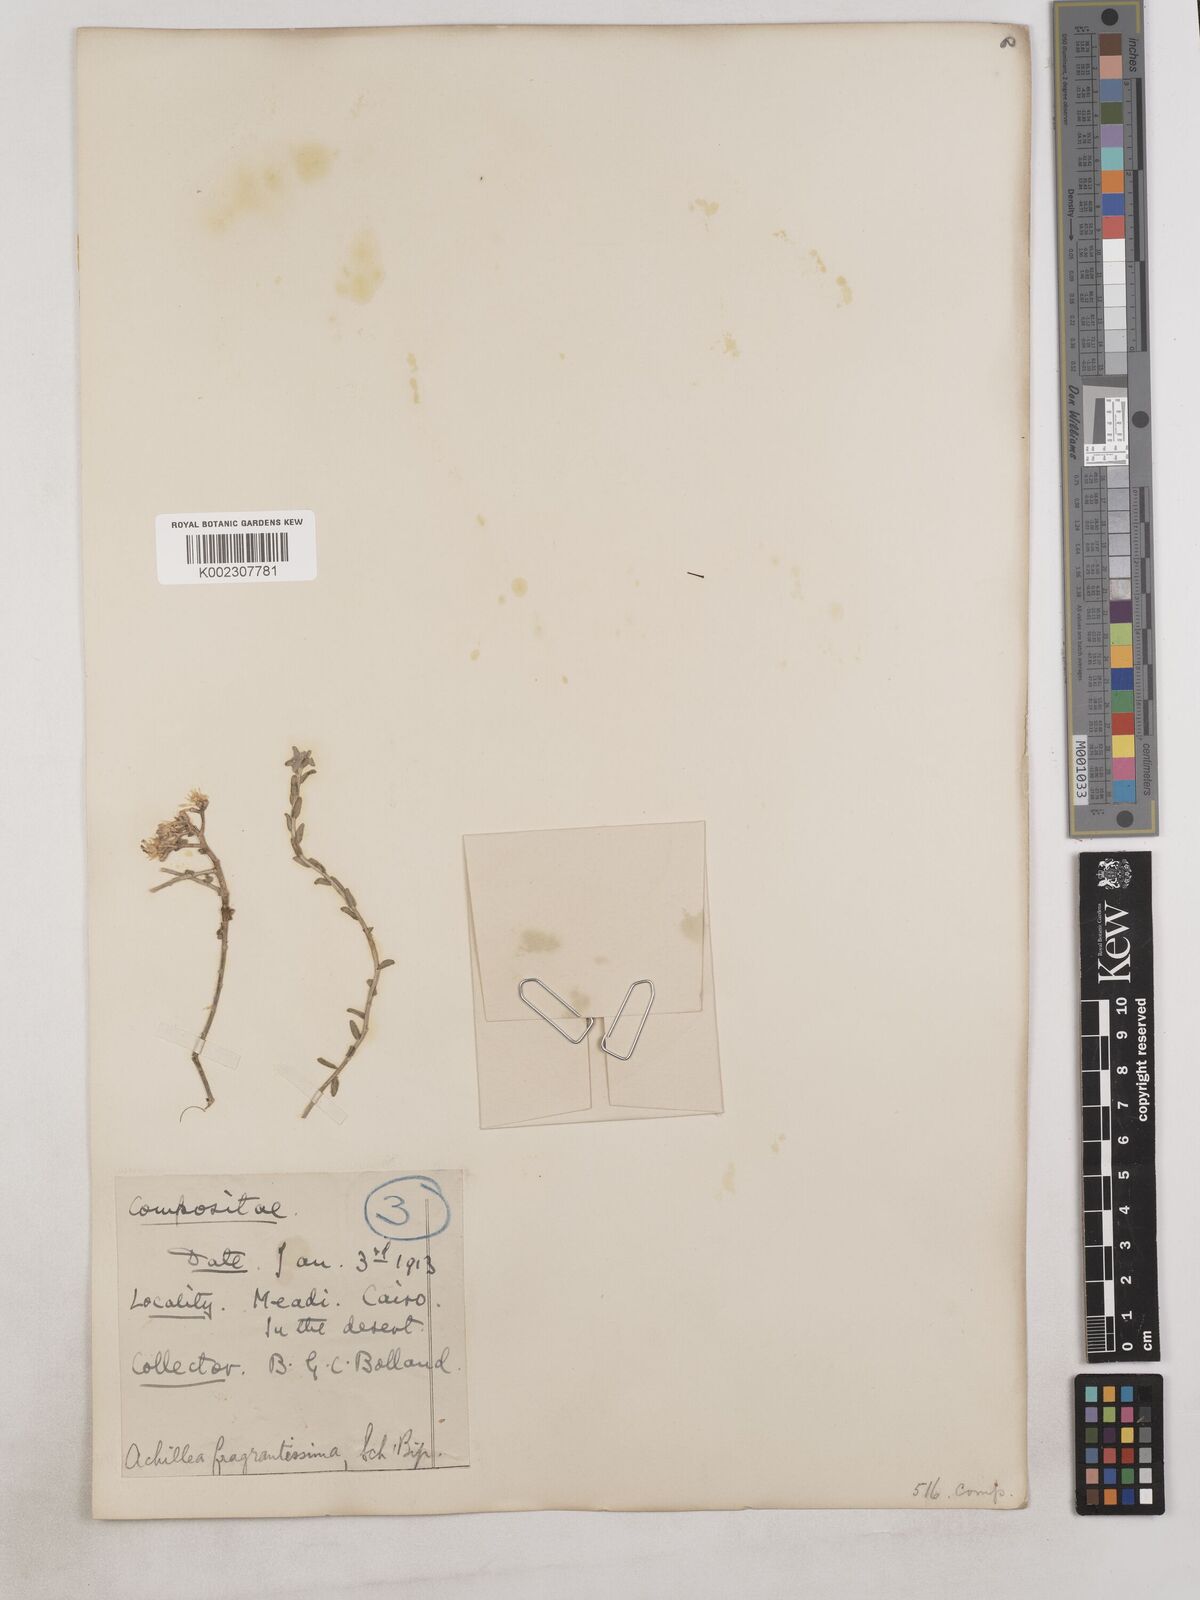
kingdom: Plantae
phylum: Tracheophyta
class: Magnoliopsida
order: Asterales
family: Asteraceae
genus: Achillea
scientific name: Achillea fragrantissima
